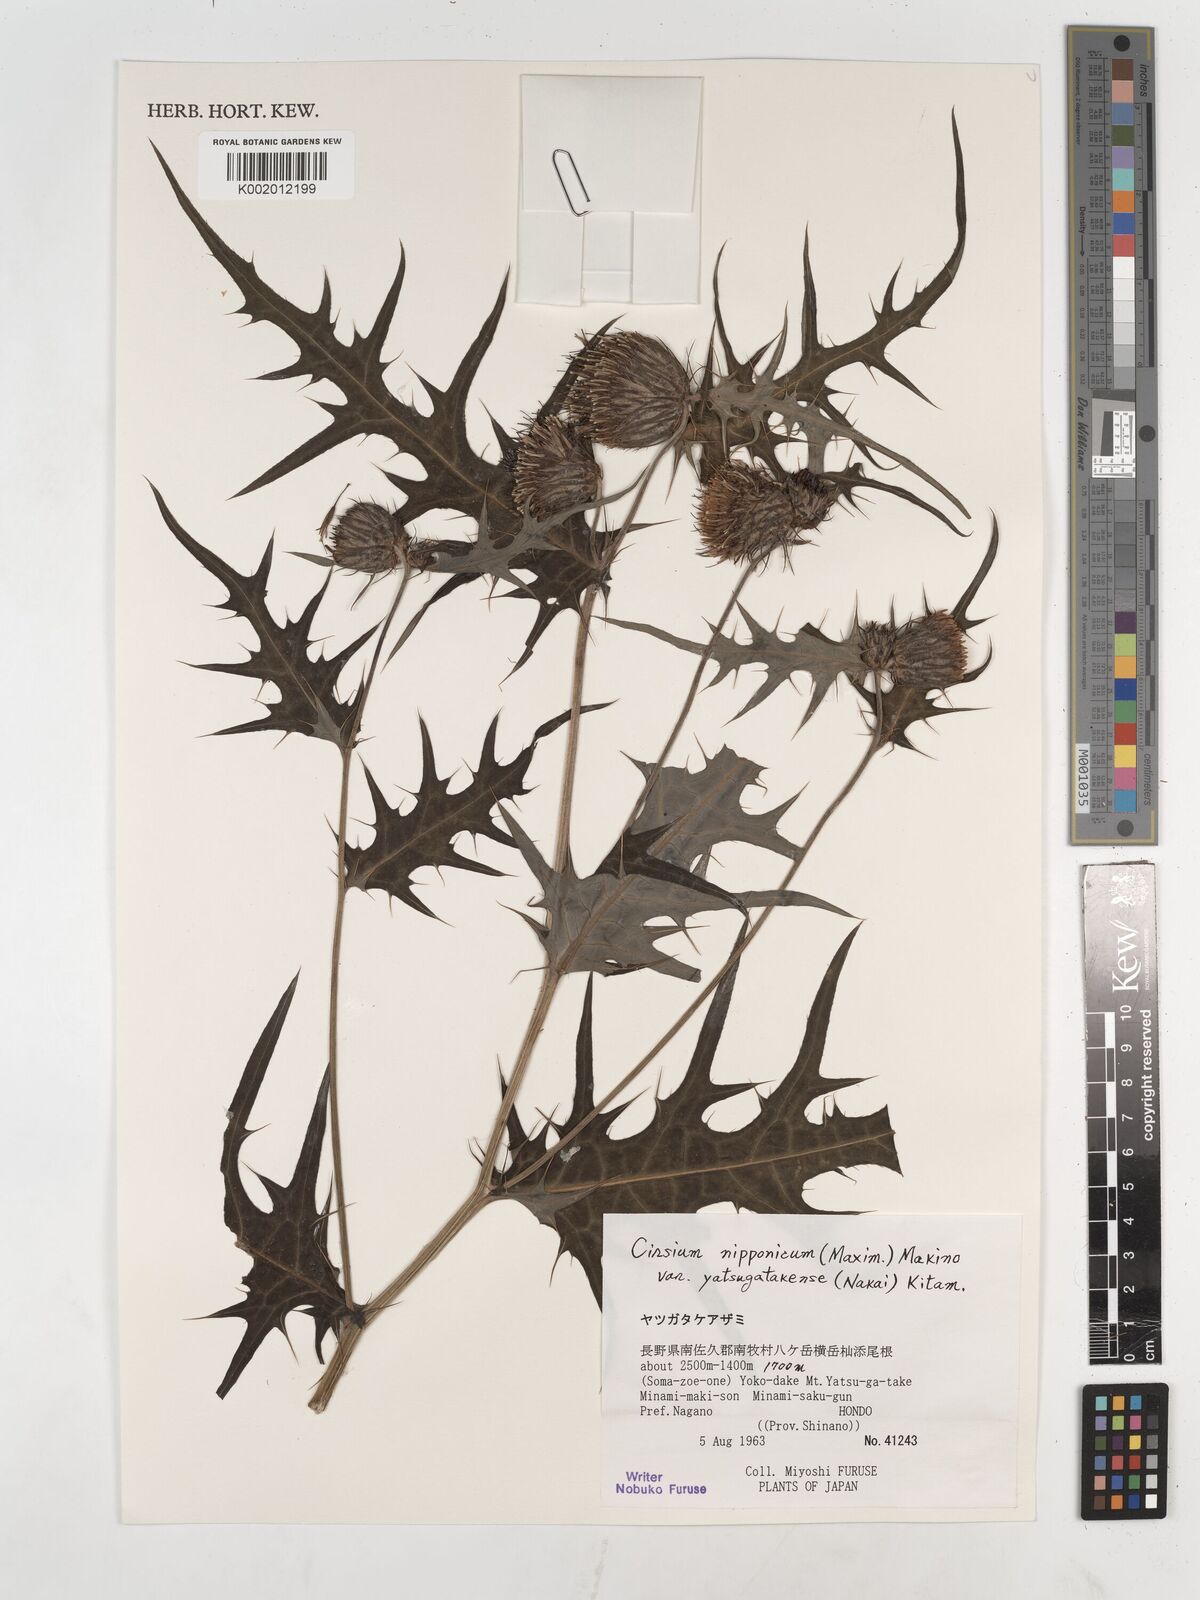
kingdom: Plantae
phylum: Tracheophyta
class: Magnoliopsida
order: Asterales
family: Asteraceae
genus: Cirsium
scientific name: Cirsium nipponicum
